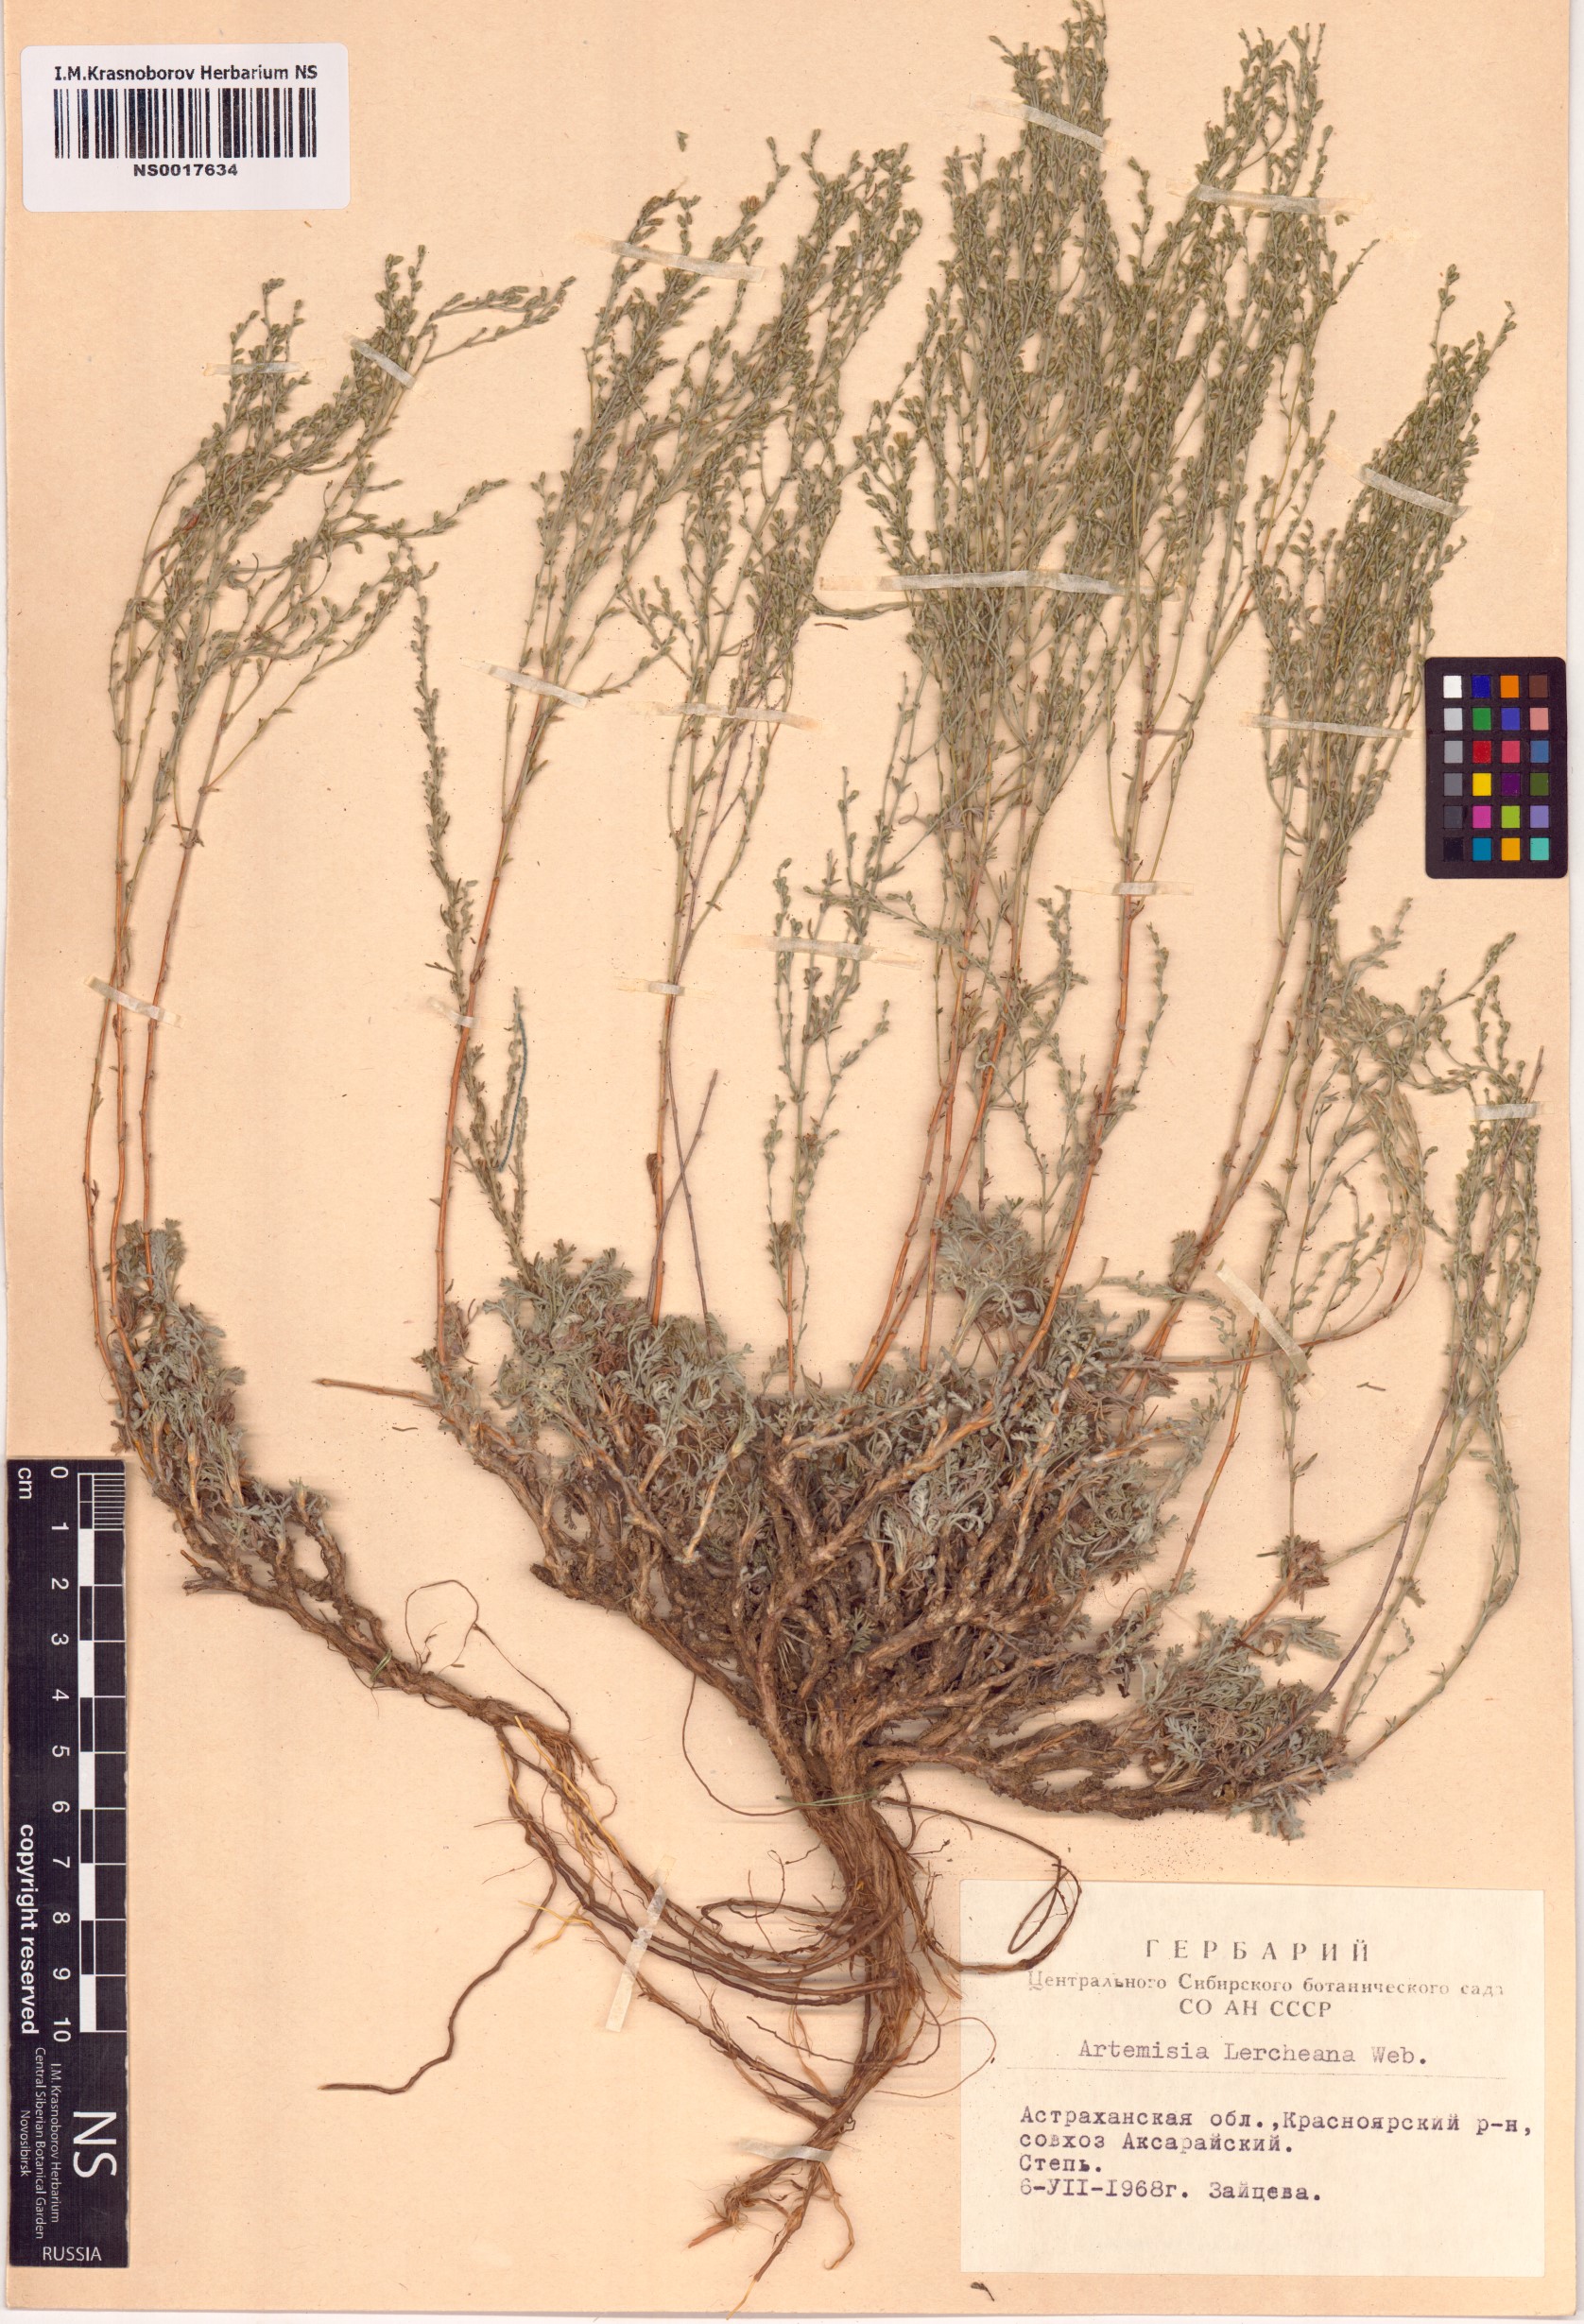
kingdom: Plantae
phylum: Tracheophyta
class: Magnoliopsida
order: Asterales
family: Asteraceae
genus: Artemisia
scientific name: Artemisia lercheana
